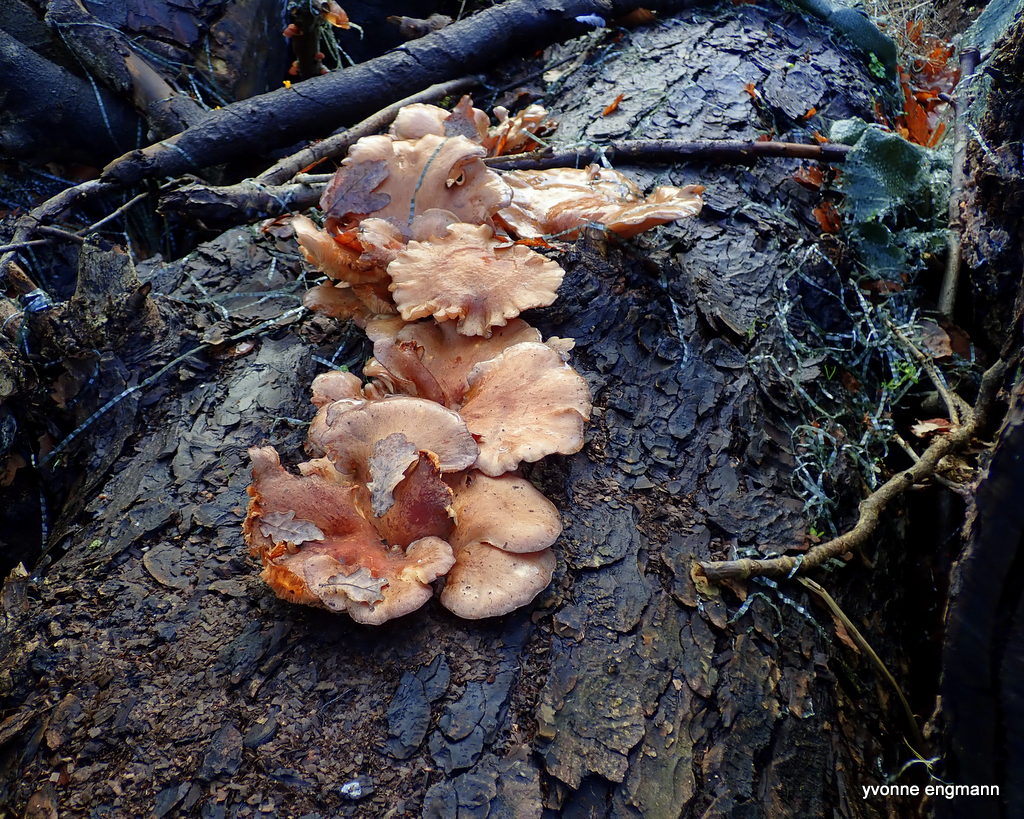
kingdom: Fungi
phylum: Basidiomycota
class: Agaricomycetes
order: Agaricales
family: Pleurotaceae
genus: Pleurotus
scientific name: Pleurotus ostreatus
